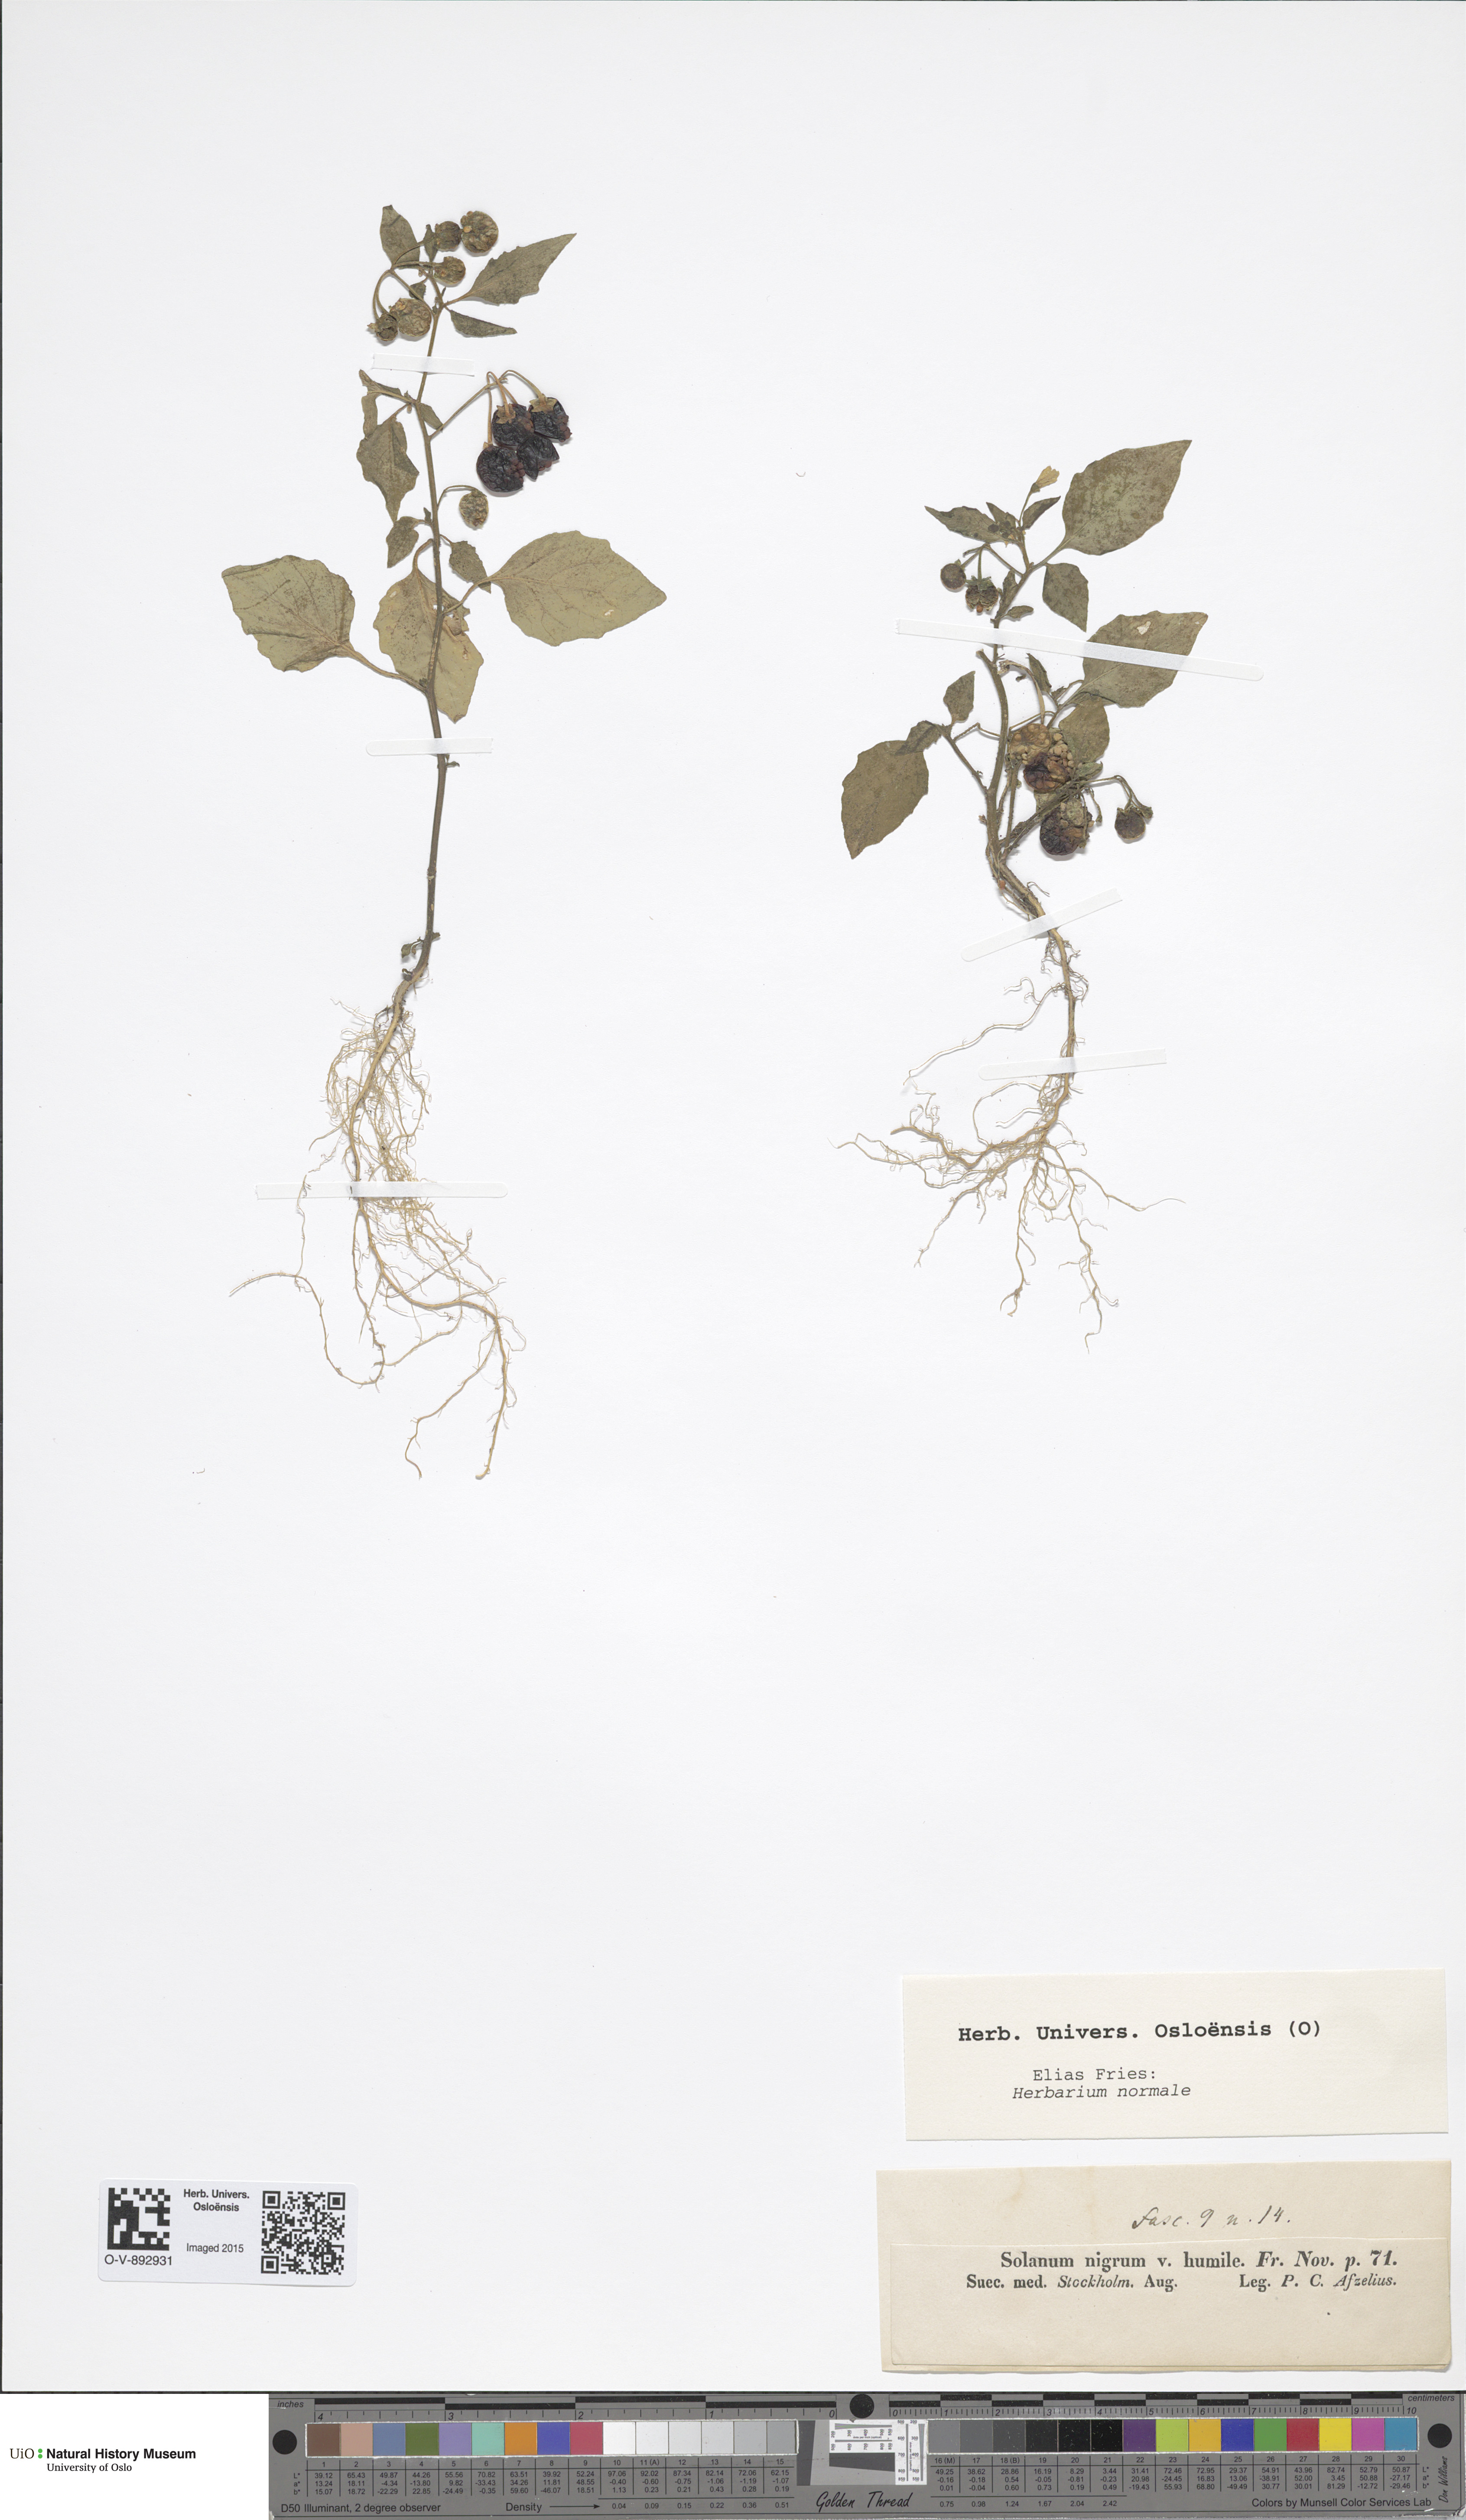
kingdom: Plantae
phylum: Tracheophyta
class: Magnoliopsida
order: Solanales
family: Solanaceae
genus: Solanum
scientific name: Solanum nigrum
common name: Black nightshade
